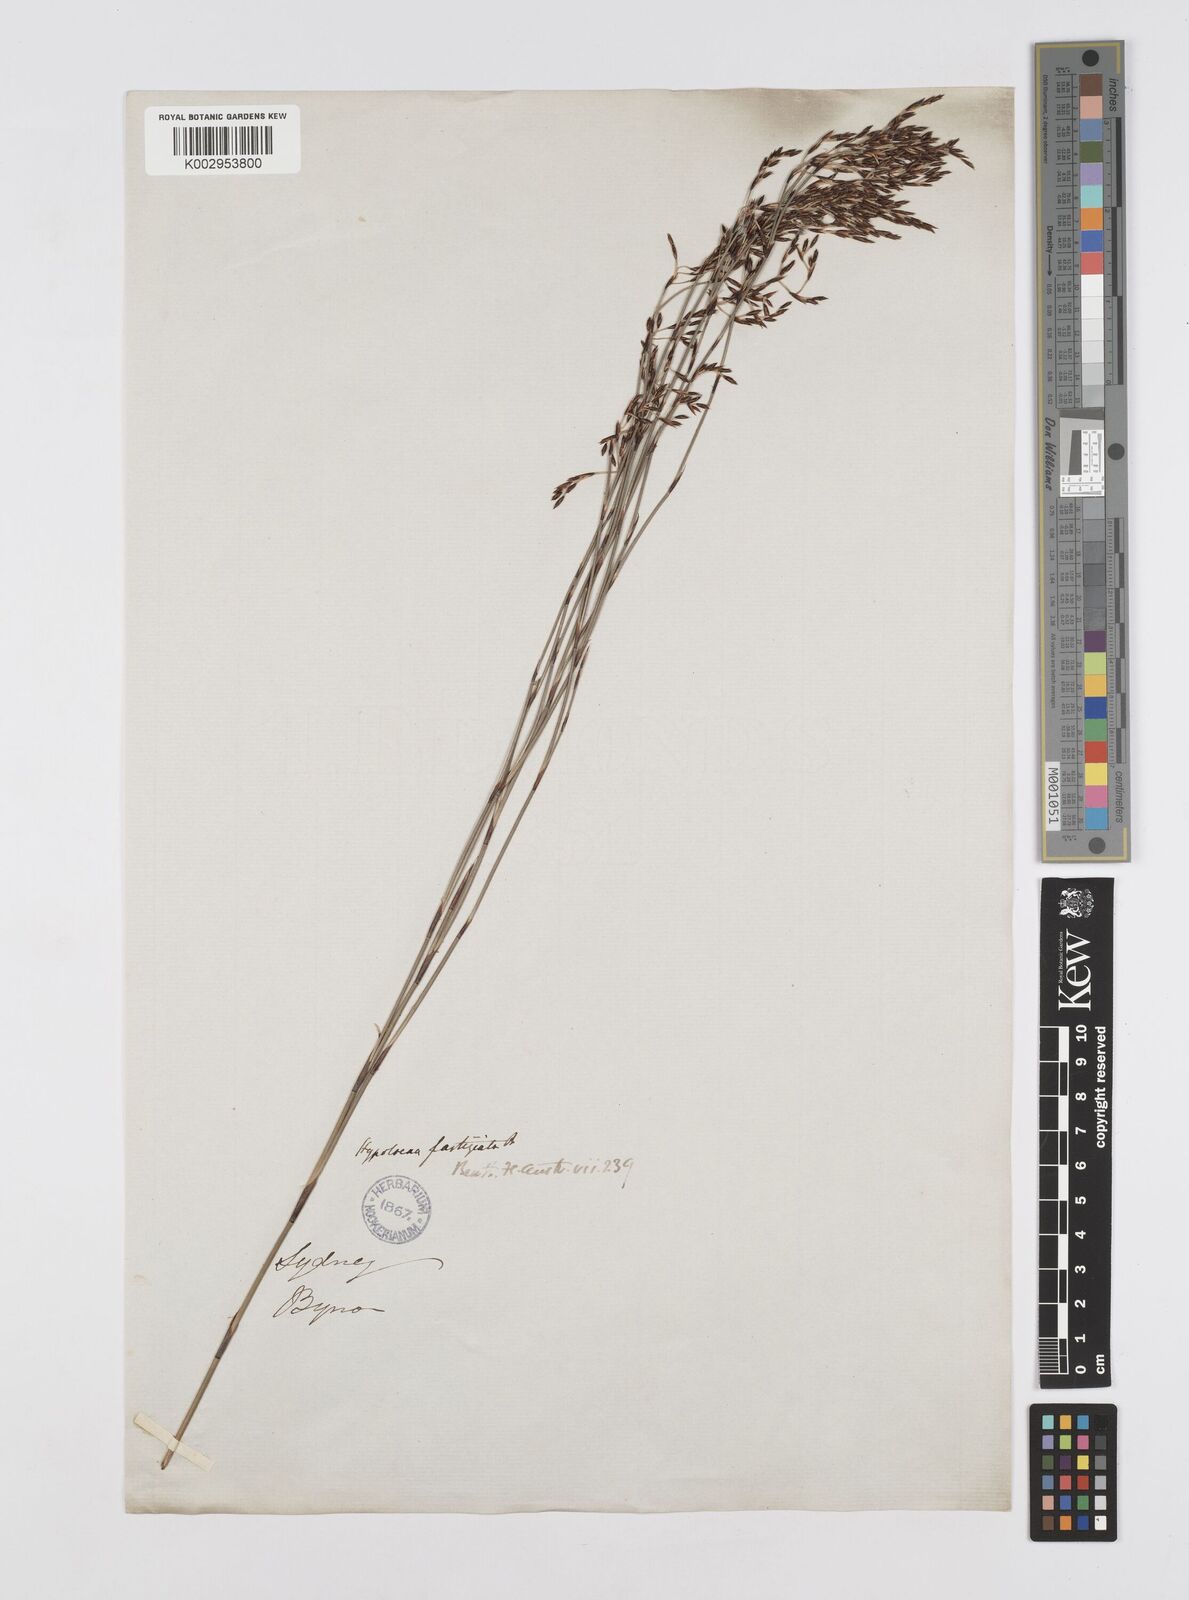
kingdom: Plantae
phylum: Tracheophyta
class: Liliopsida
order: Poales
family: Restionaceae
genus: Hypolaena
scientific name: Hypolaena fastigiata
